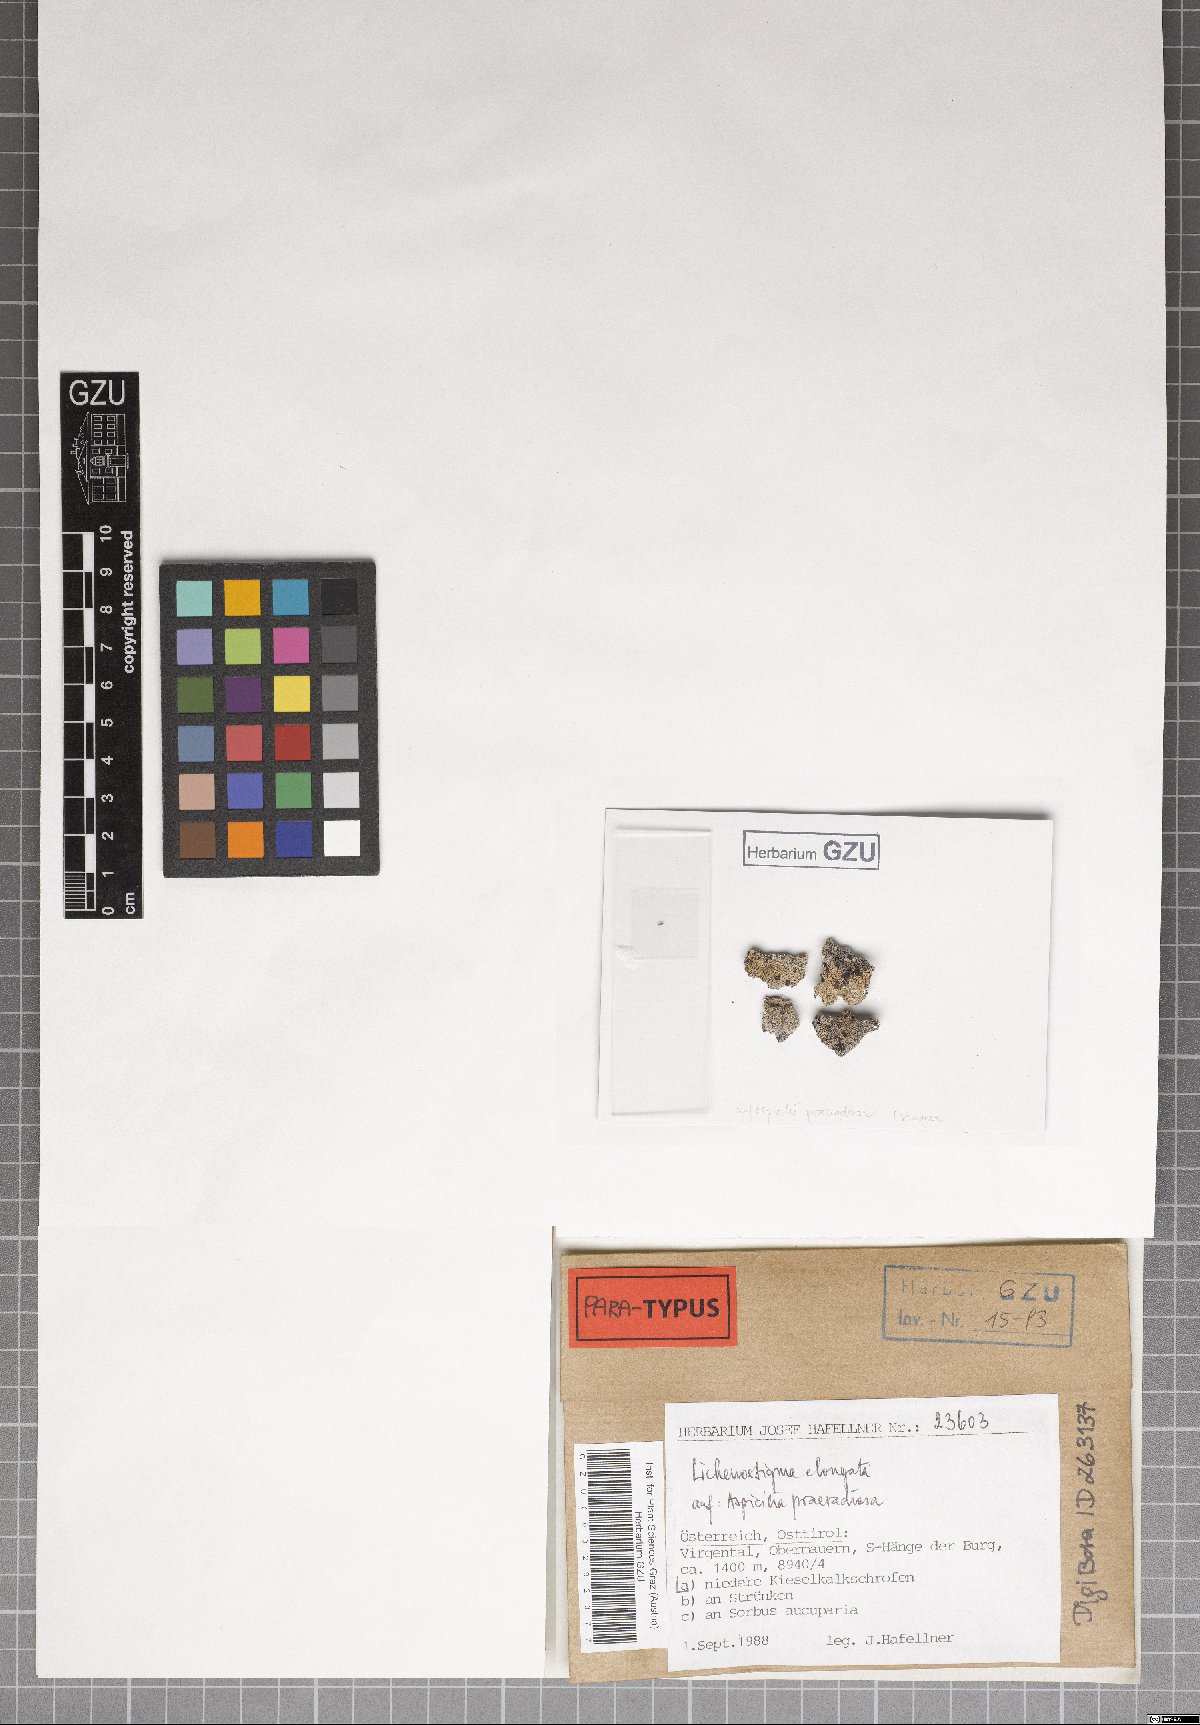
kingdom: Fungi
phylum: Ascomycota
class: Arthoniomycetes
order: Lichenostigmatales
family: Phaeococcomycetaceae
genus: Lichenostigma
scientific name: Lichenostigma elongatum
